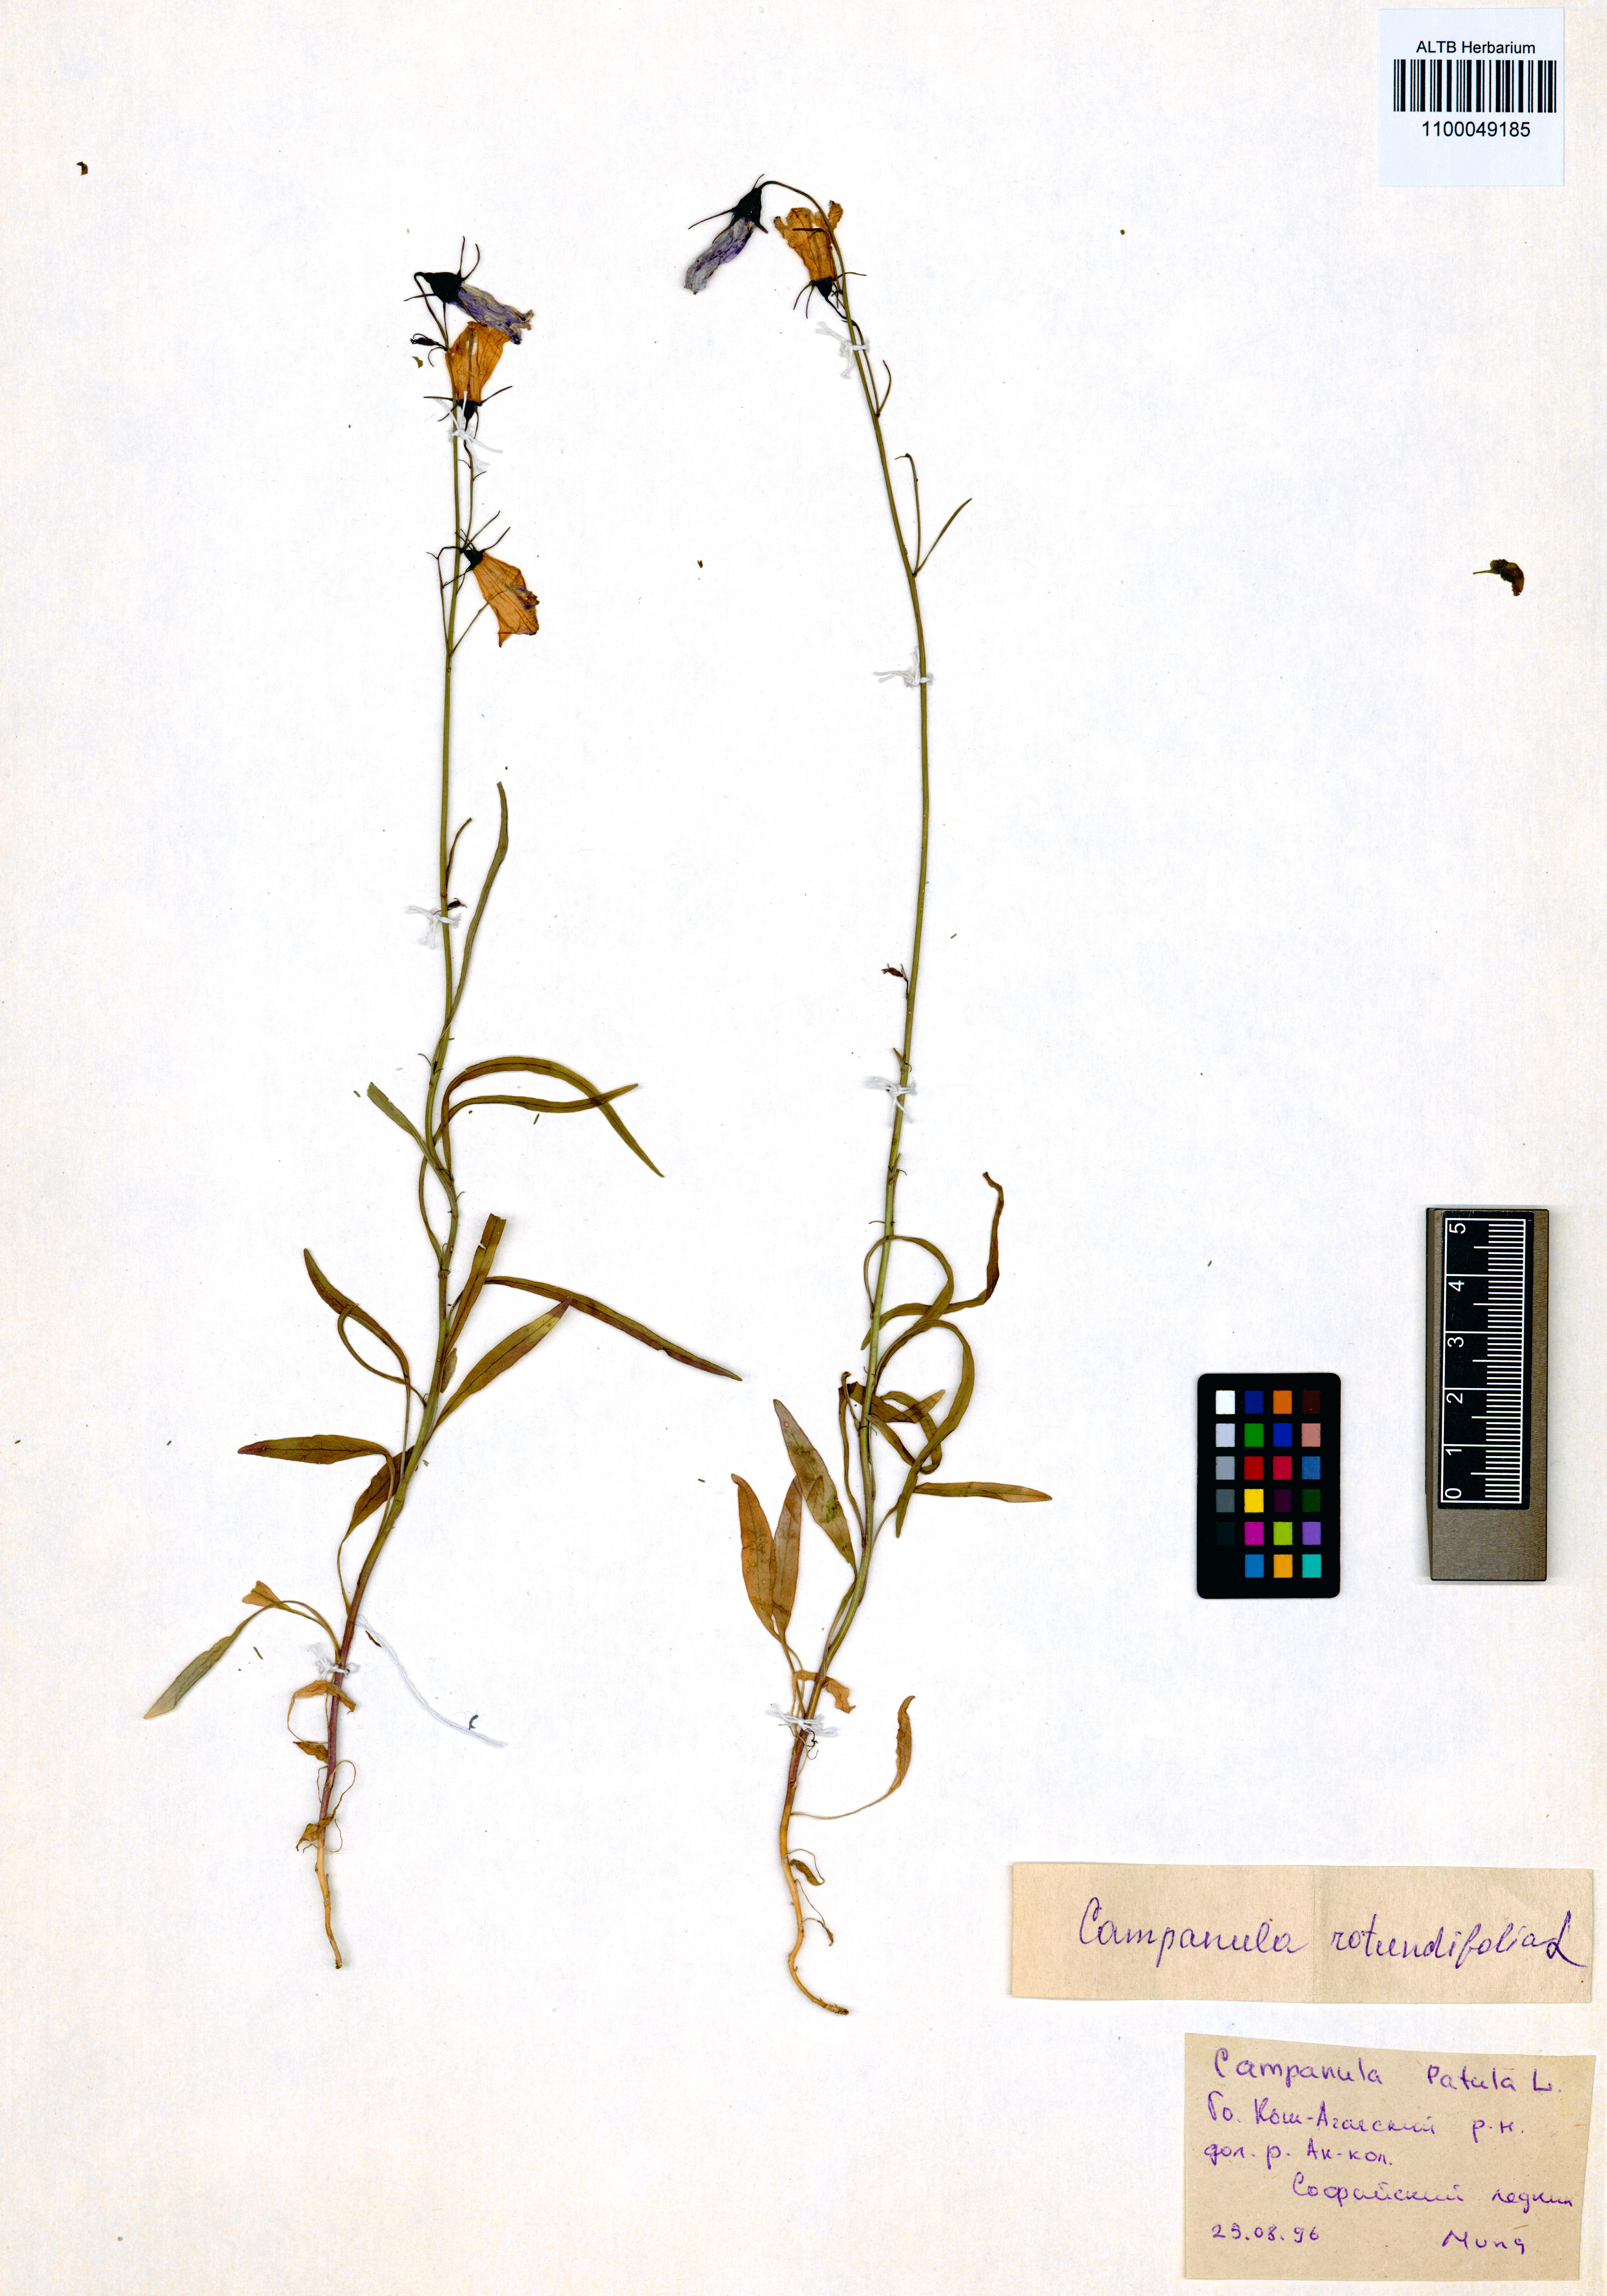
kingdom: Plantae
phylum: Tracheophyta
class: Magnoliopsida
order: Asterales
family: Campanulaceae
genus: Campanula
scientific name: Campanula rotundifolia
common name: Harebell
